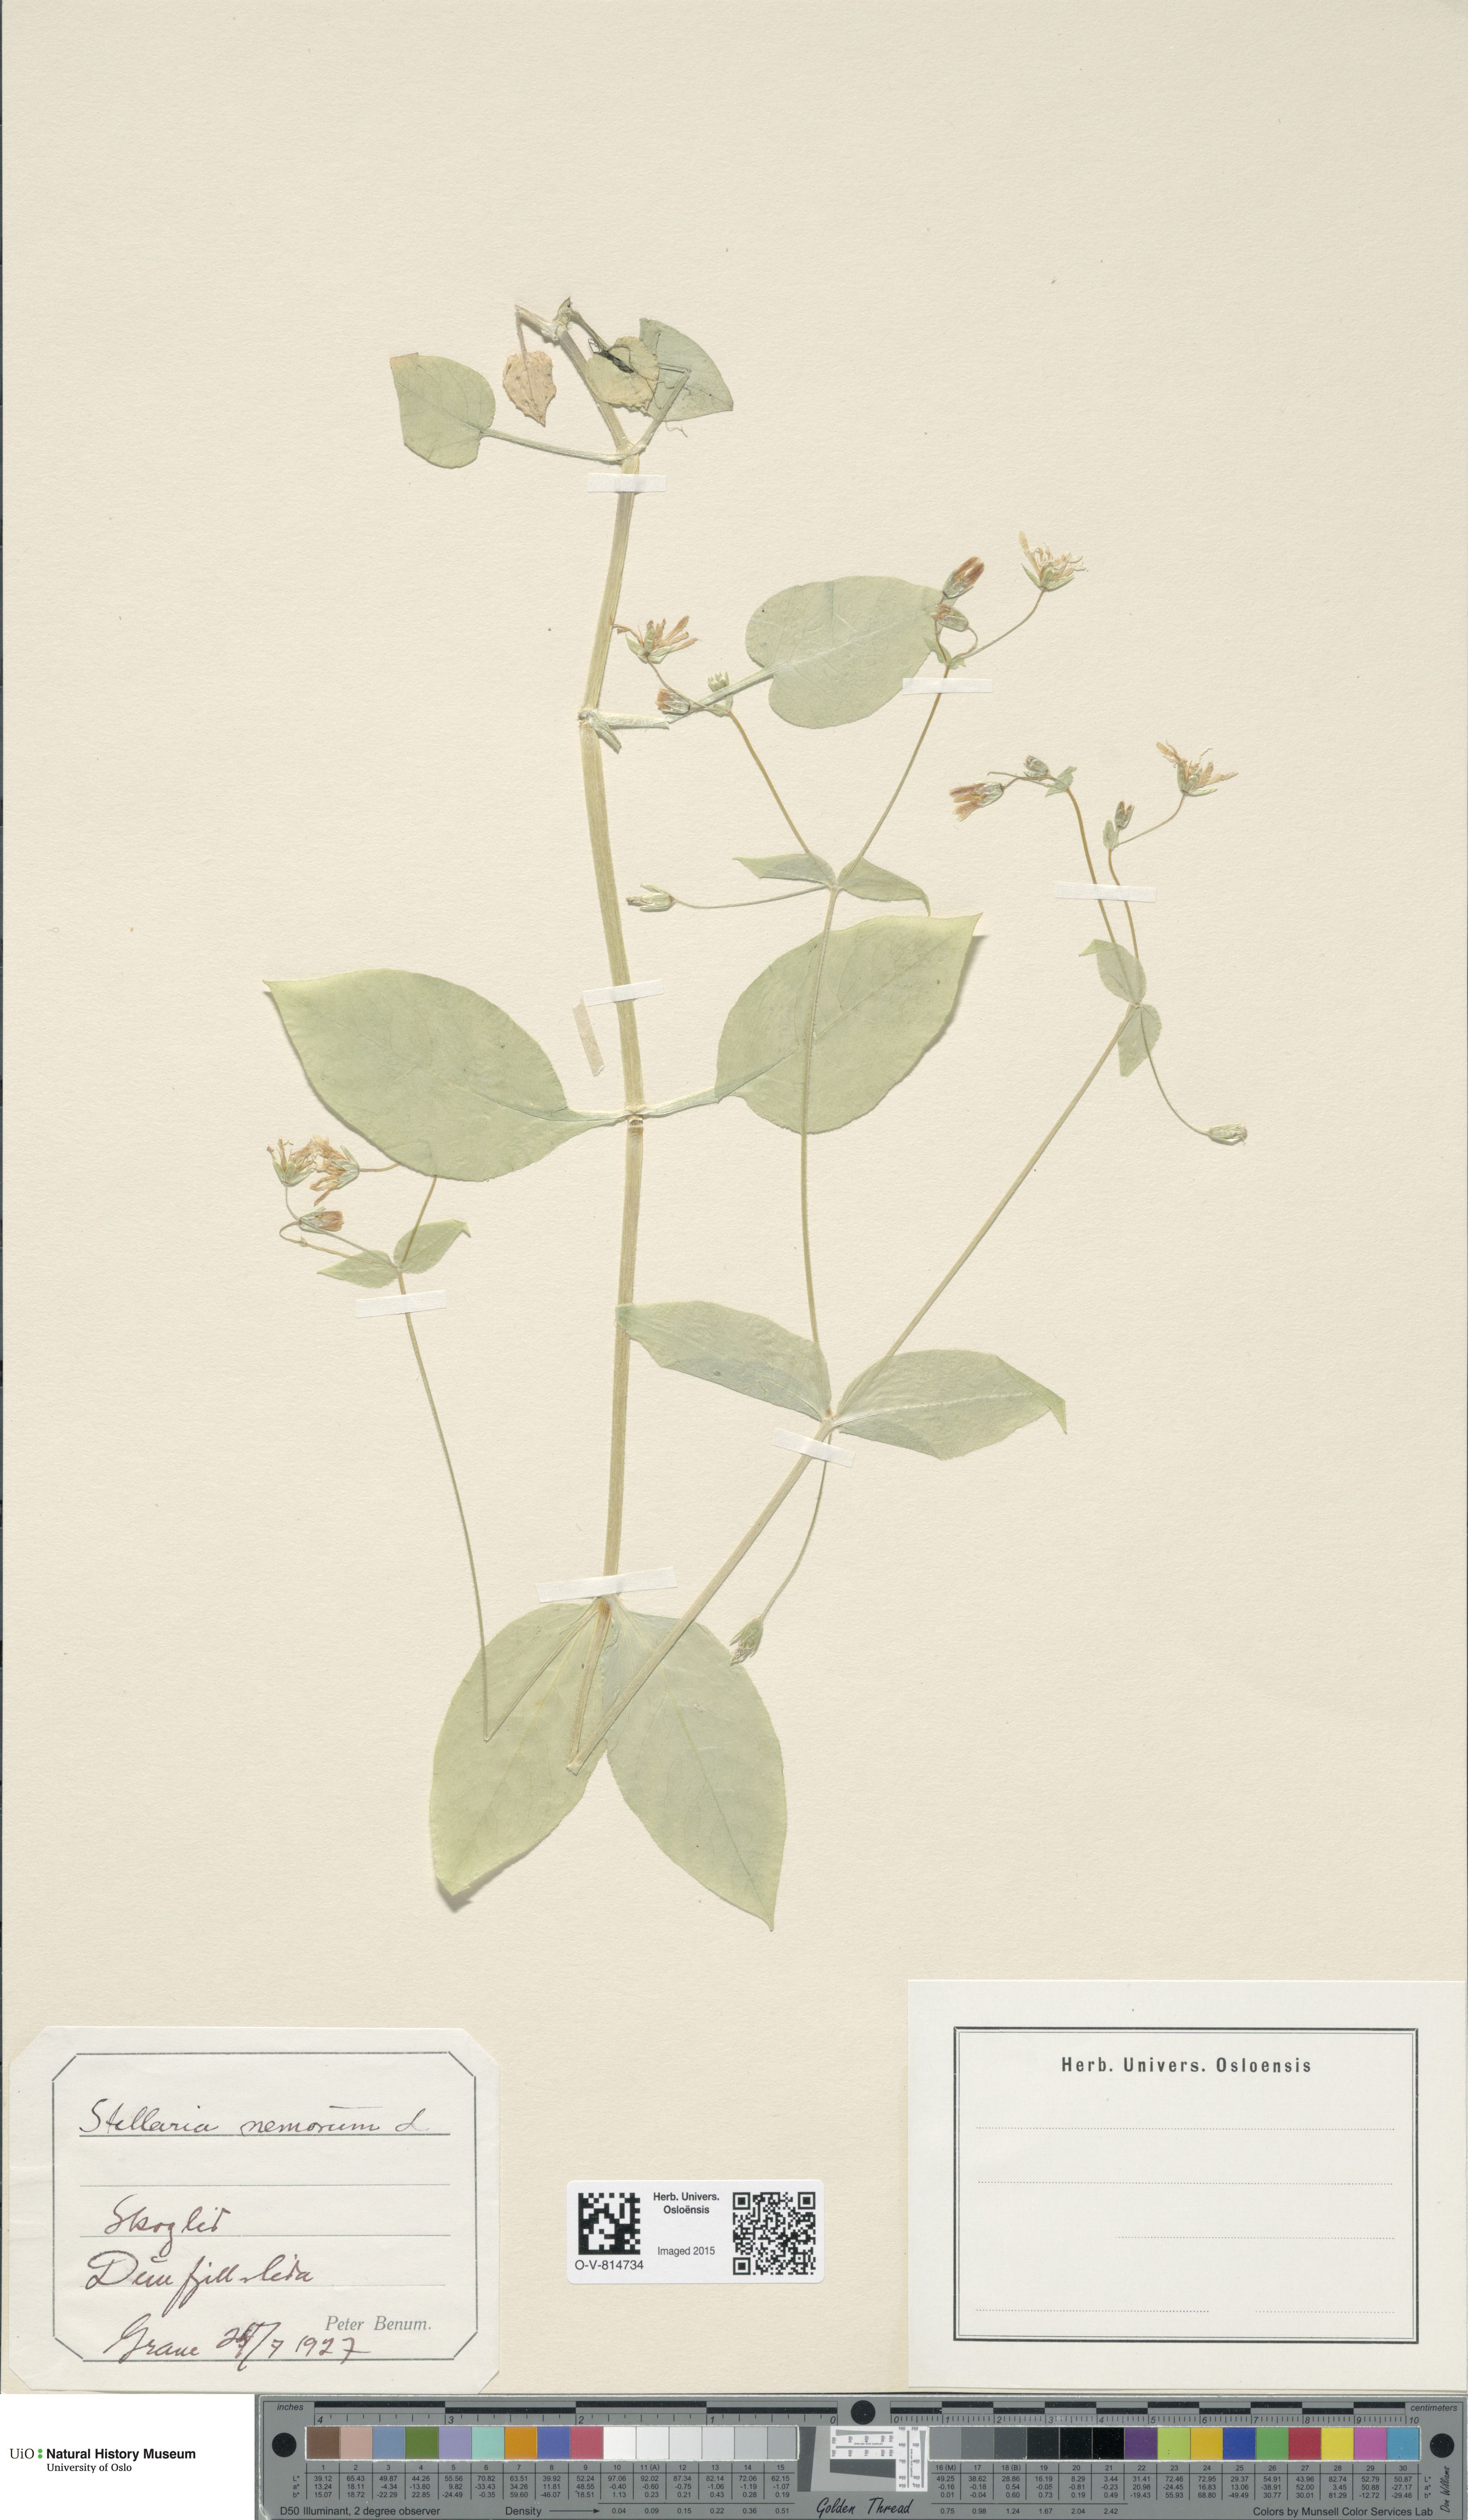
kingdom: Plantae
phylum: Tracheophyta
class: Magnoliopsida
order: Caryophyllales
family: Caryophyllaceae
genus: Stellaria
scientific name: Stellaria nemorum
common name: Wood stitchwort
